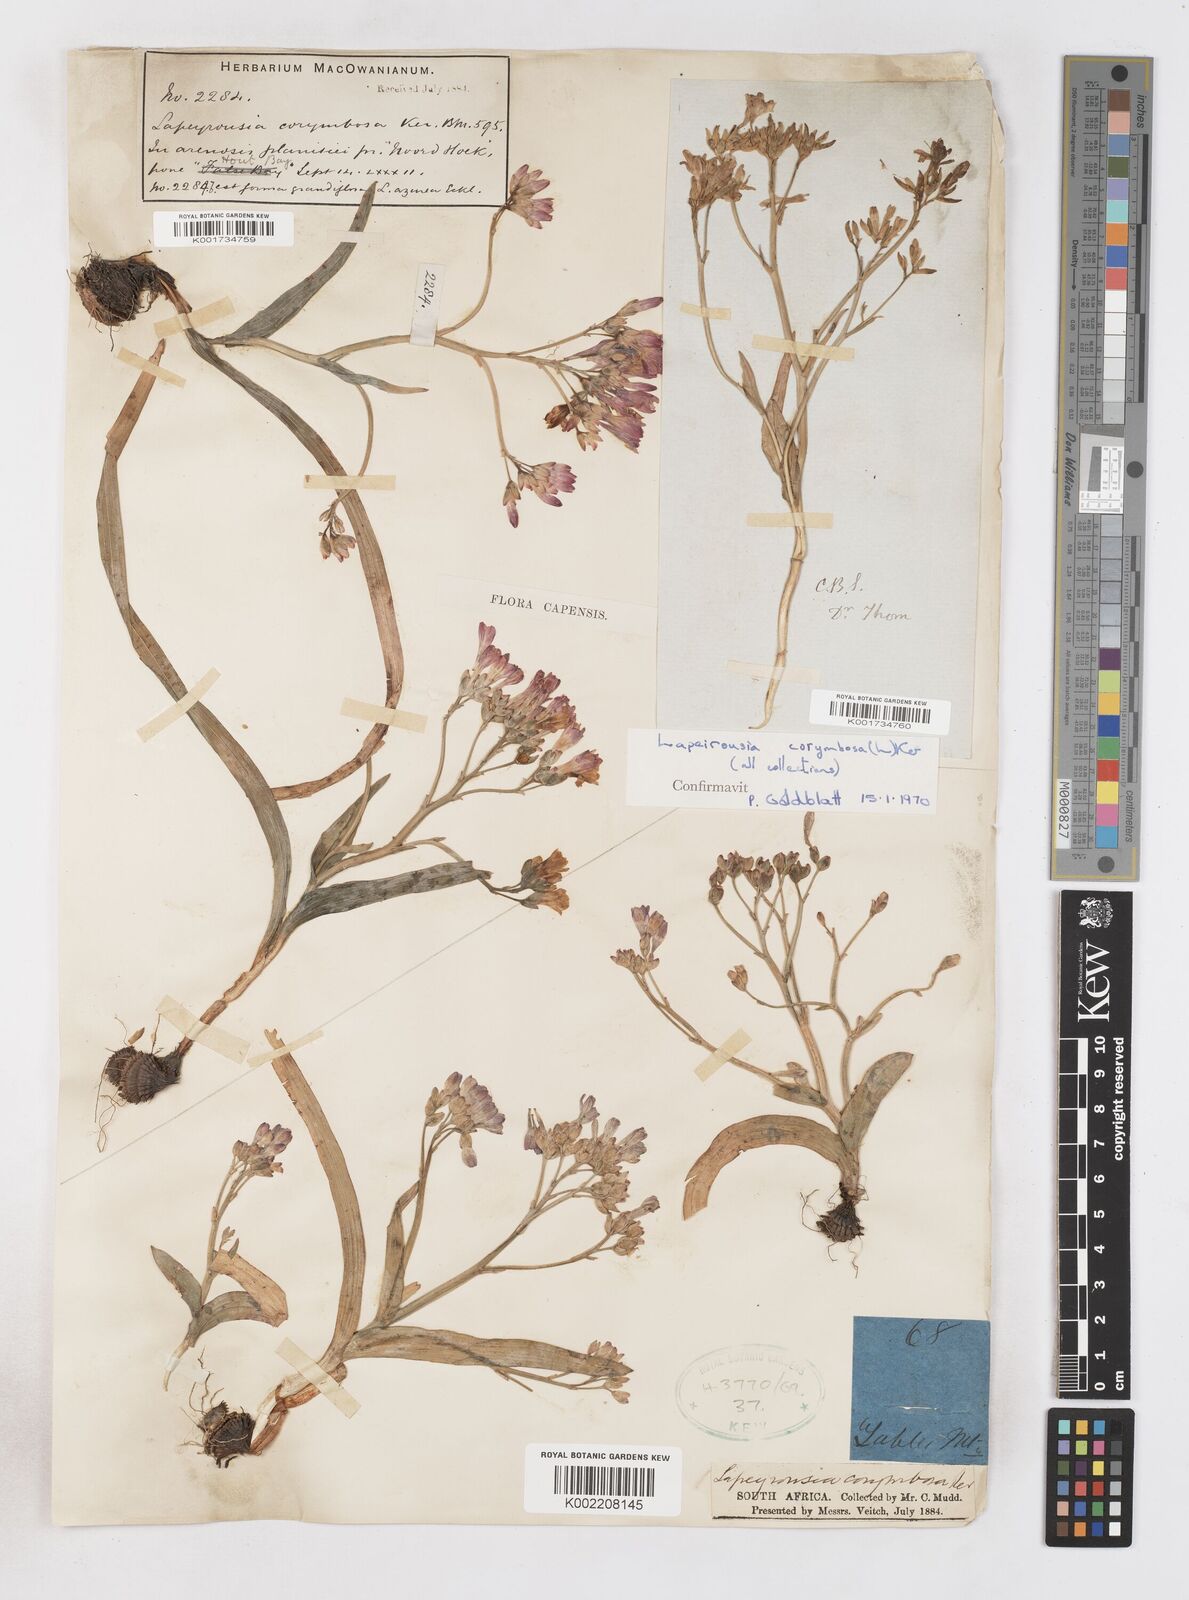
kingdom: Plantae
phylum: Tracheophyta
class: Liliopsida
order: Asparagales
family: Iridaceae
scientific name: Iridaceae
